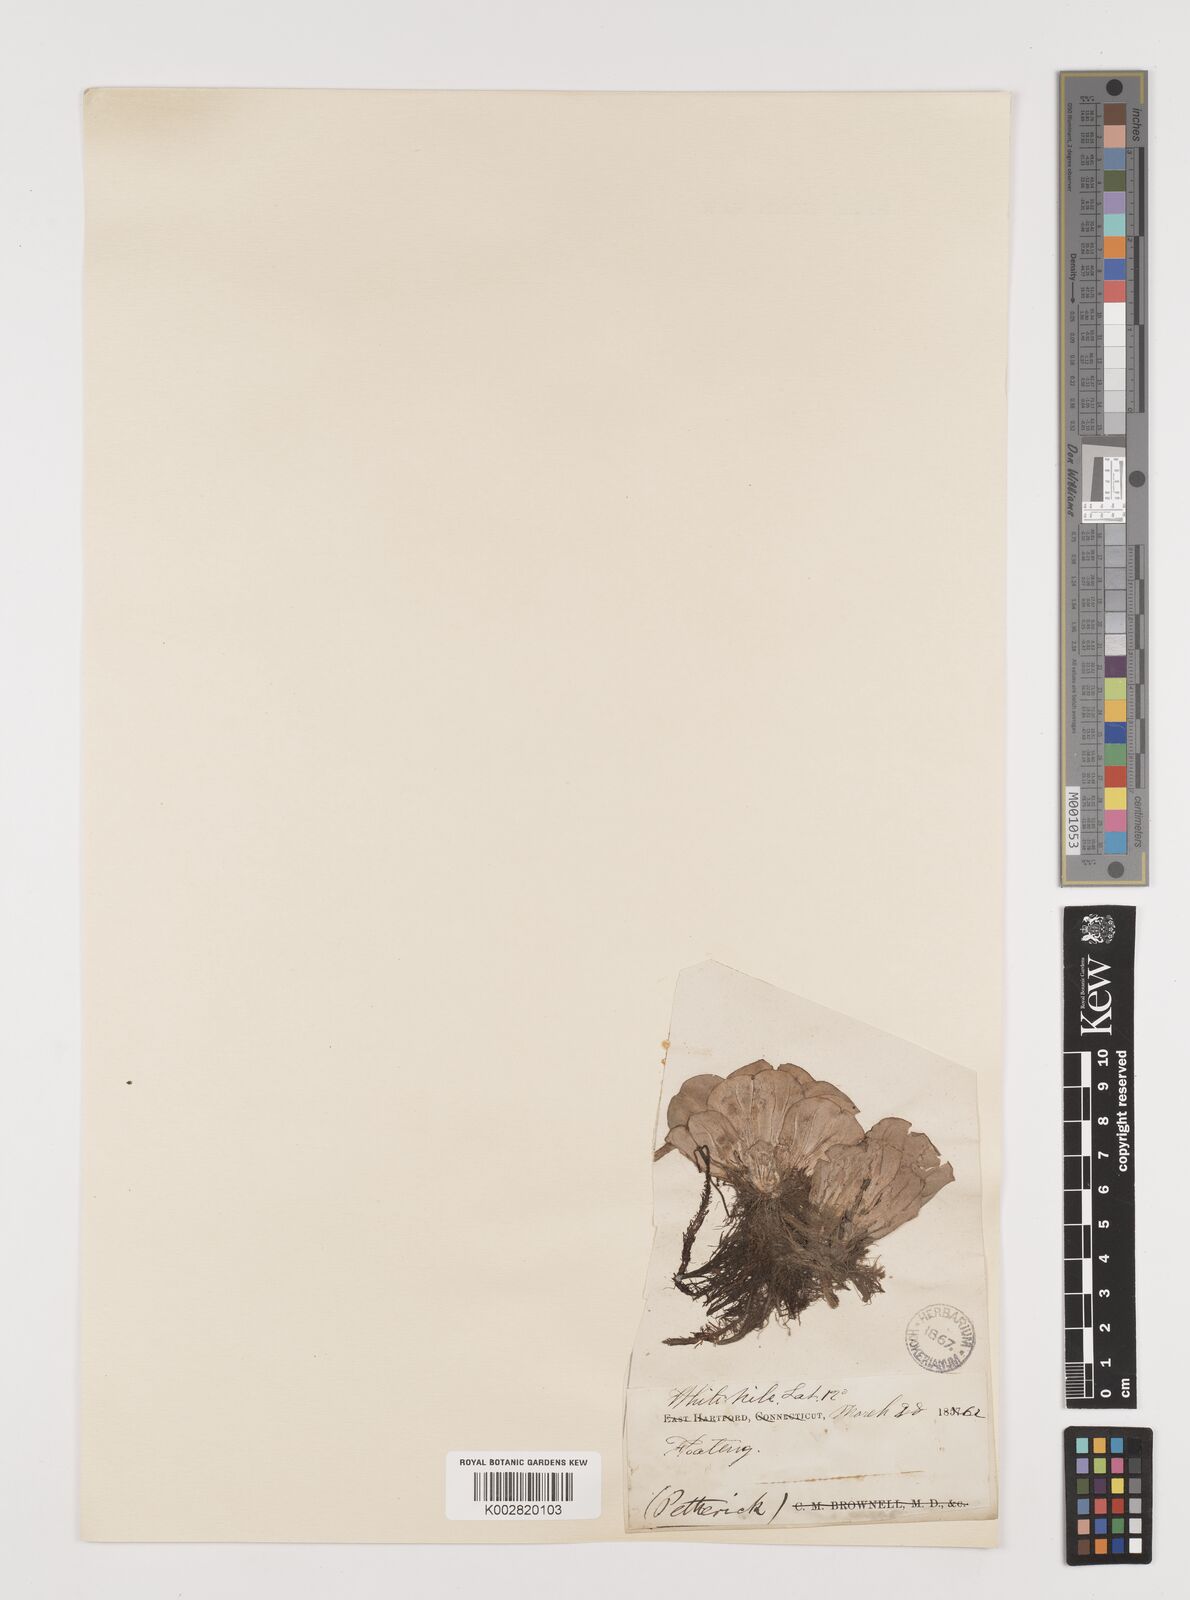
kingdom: Plantae
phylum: Tracheophyta
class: Liliopsida
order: Alismatales
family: Araceae
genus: Pistia
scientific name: Pistia stratiotes
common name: Water lettuce
